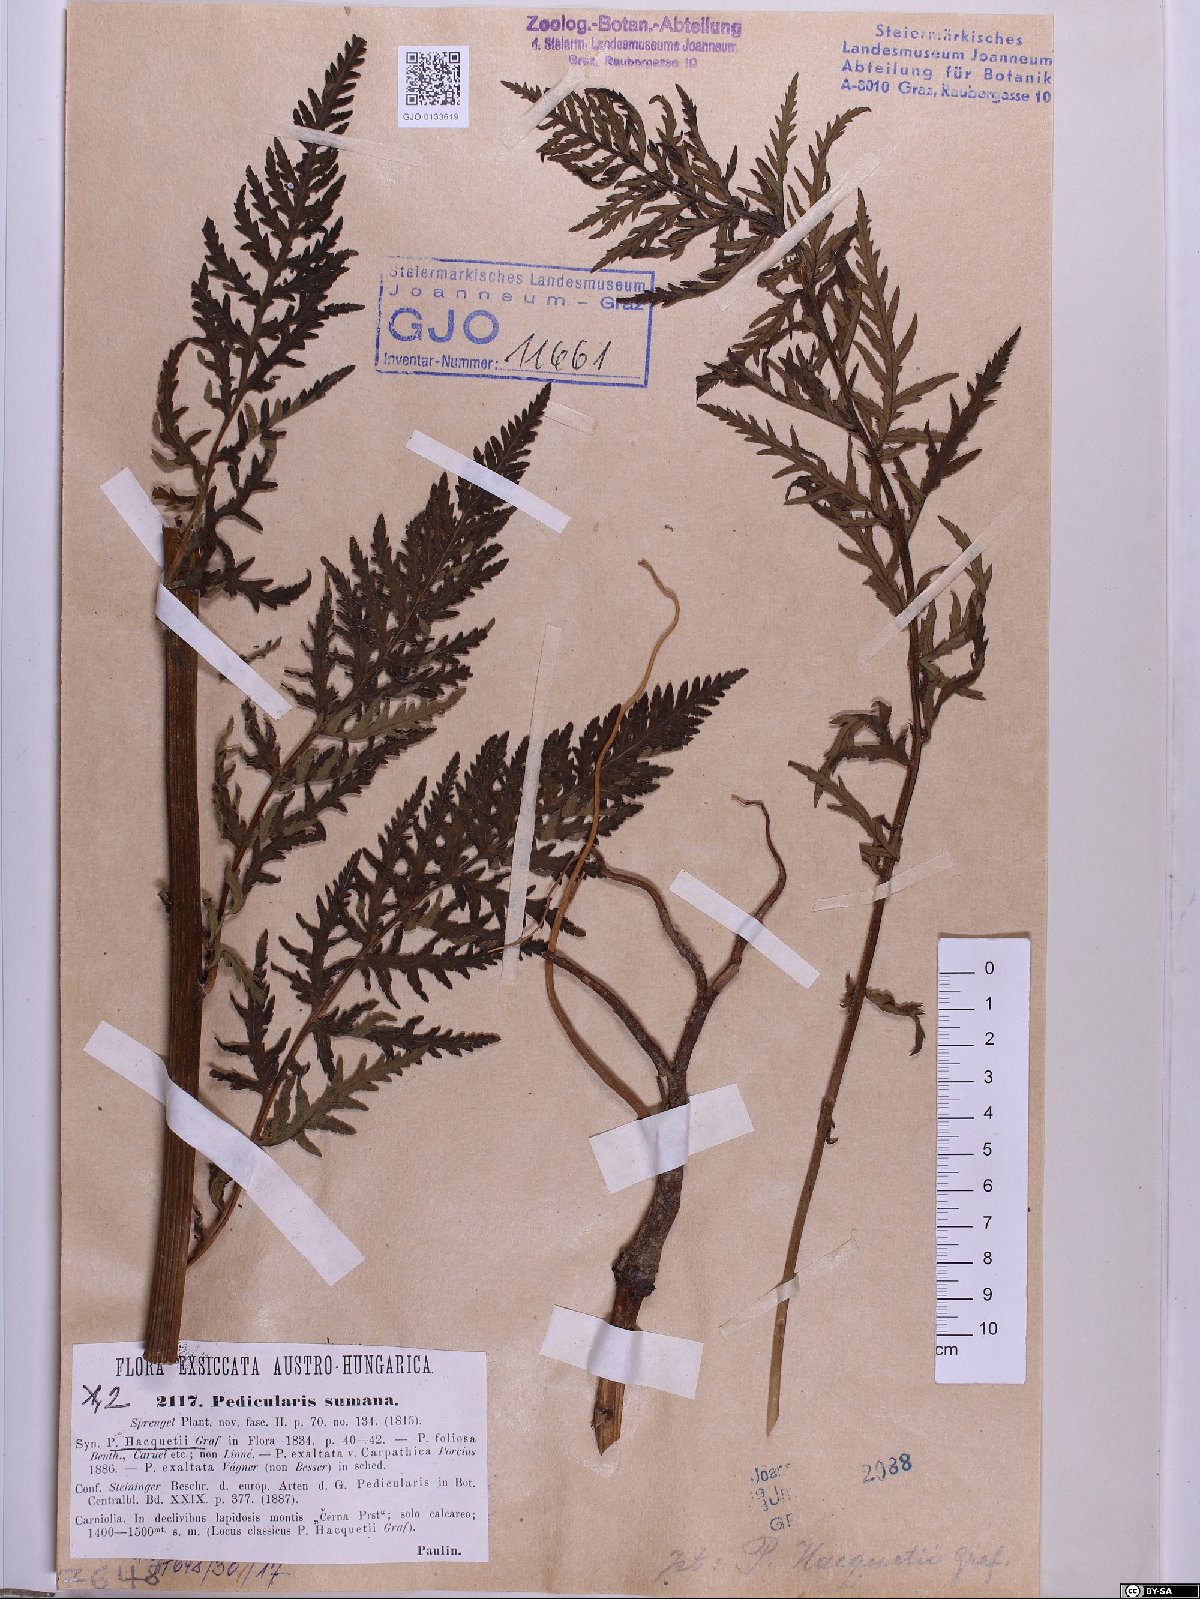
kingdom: Plantae
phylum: Tracheophyta
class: Magnoliopsida
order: Lamiales
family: Scrophulariaceae
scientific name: Scrophulariaceae
